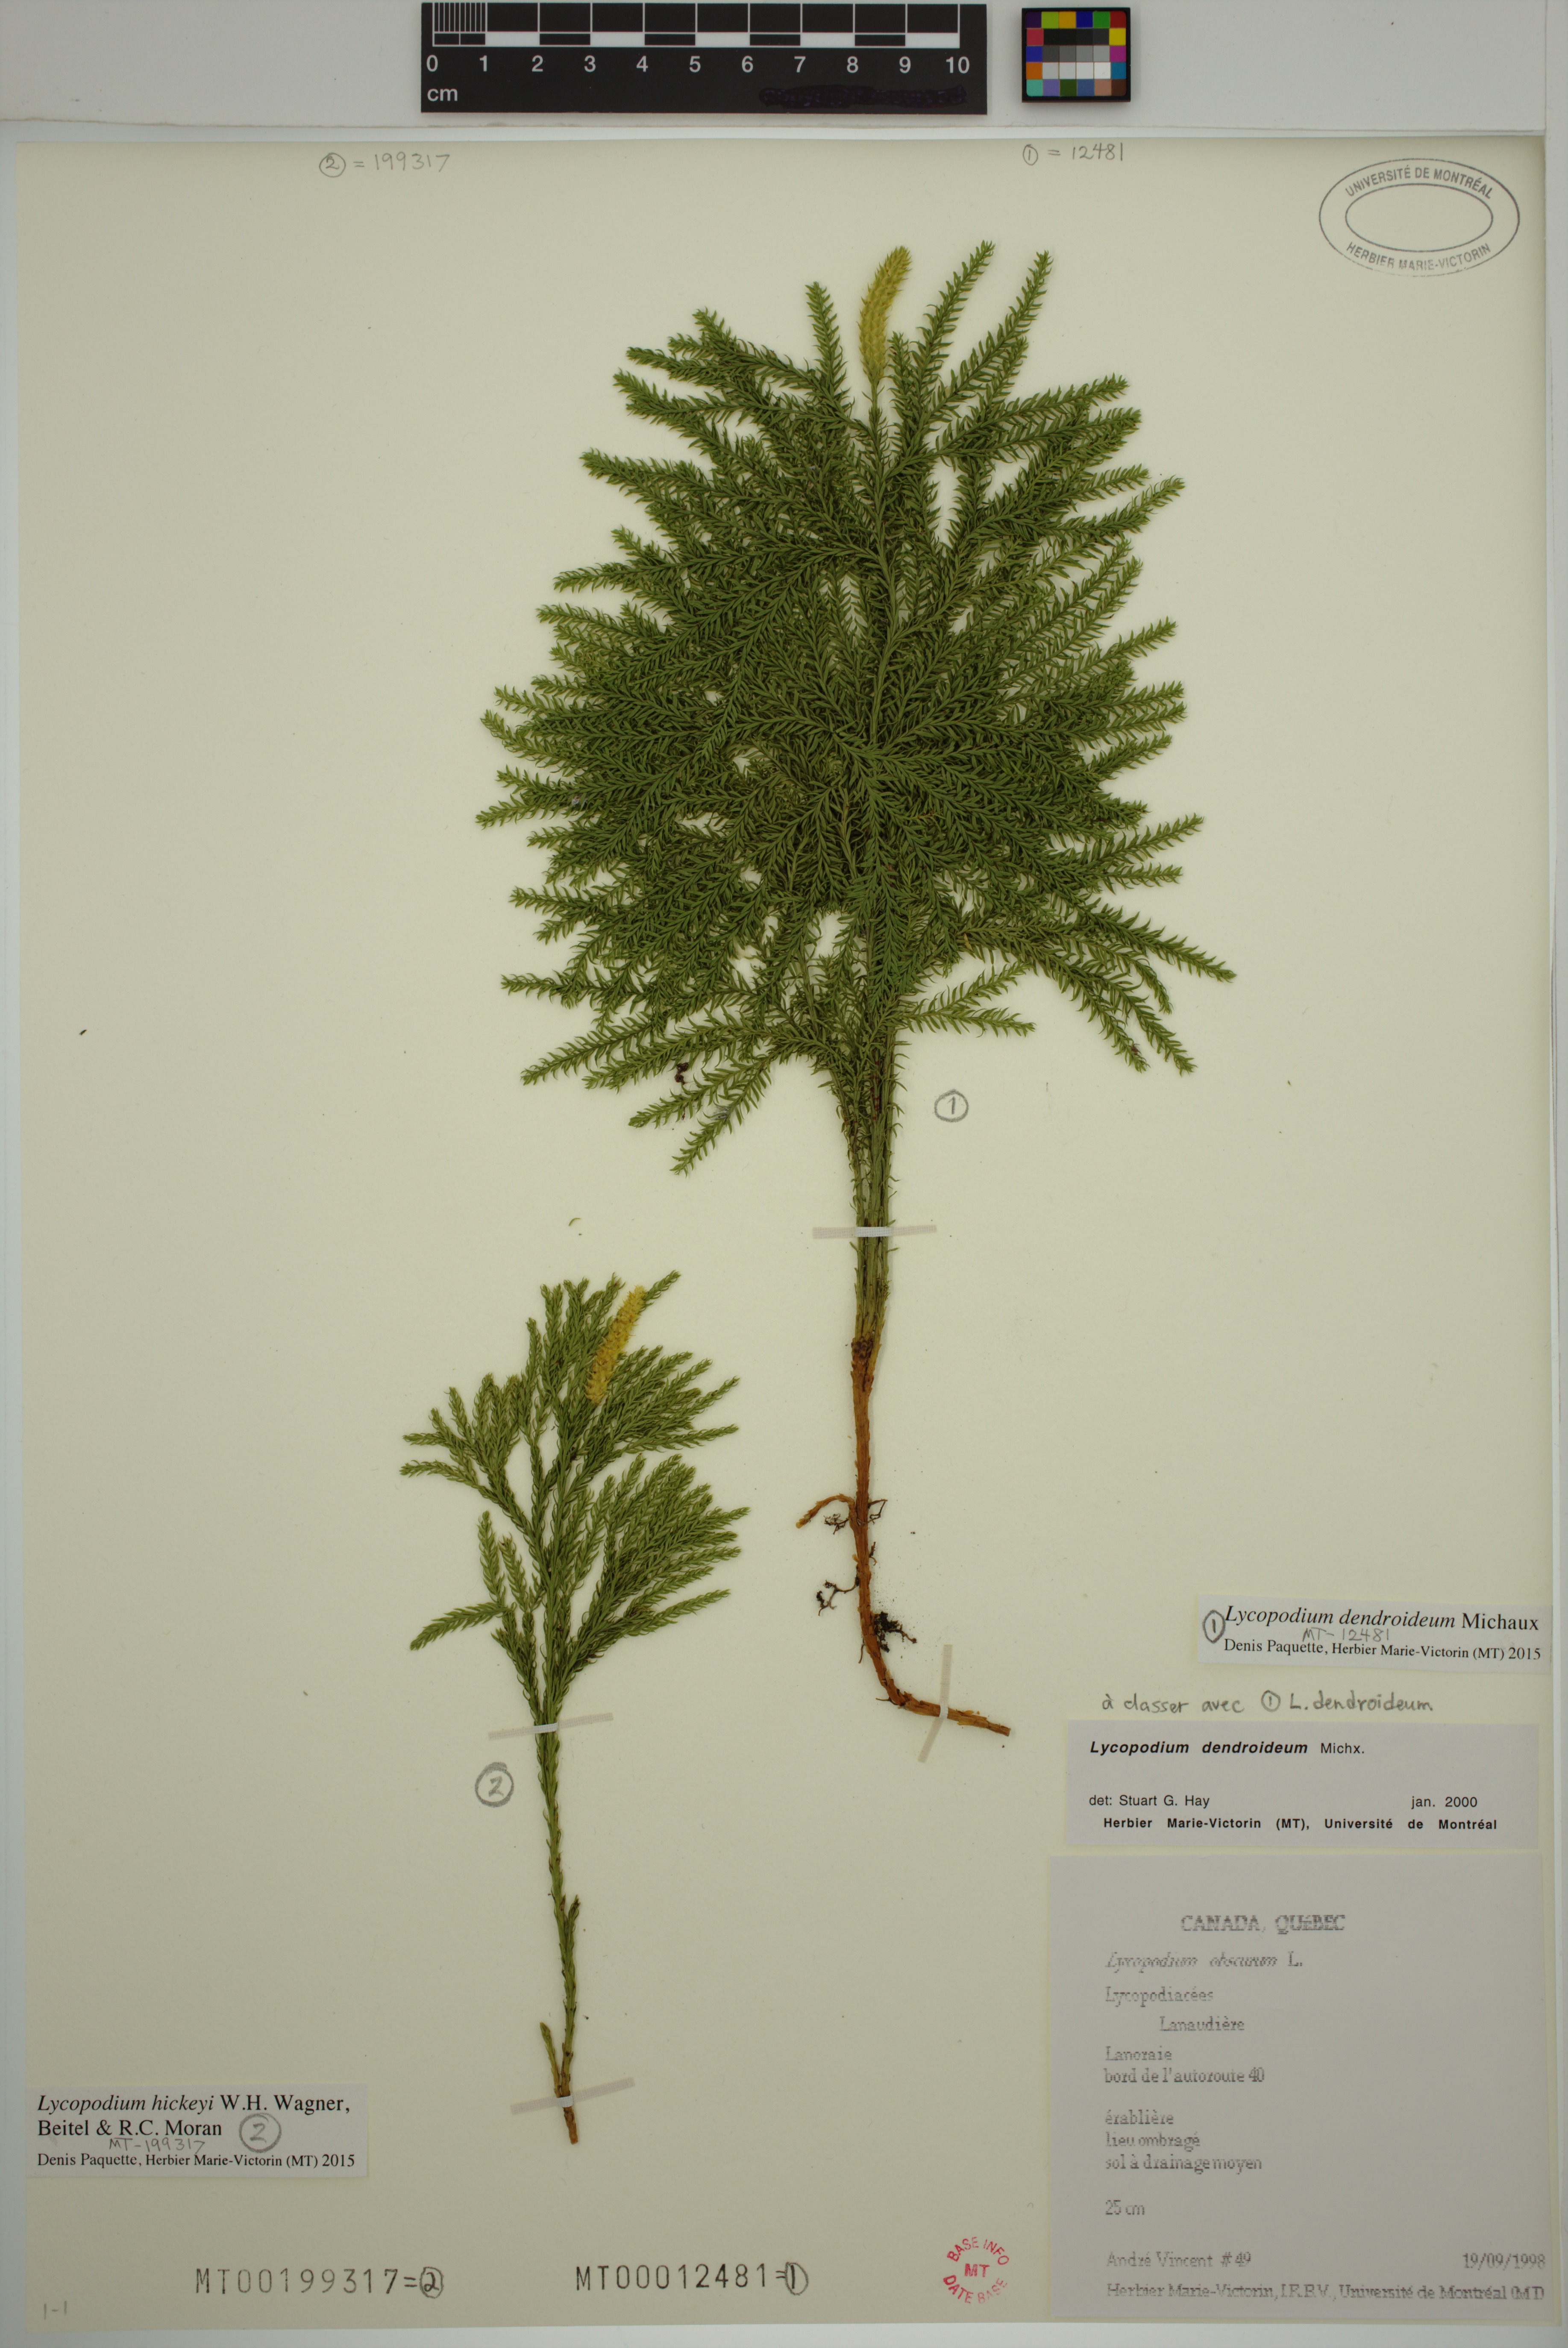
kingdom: Plantae
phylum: Tracheophyta
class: Lycopodiopsida
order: Lycopodiales
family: Lycopodiaceae
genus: Dendrolycopodium
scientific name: Dendrolycopodium hickeyi
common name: Hickey's clubmoss
